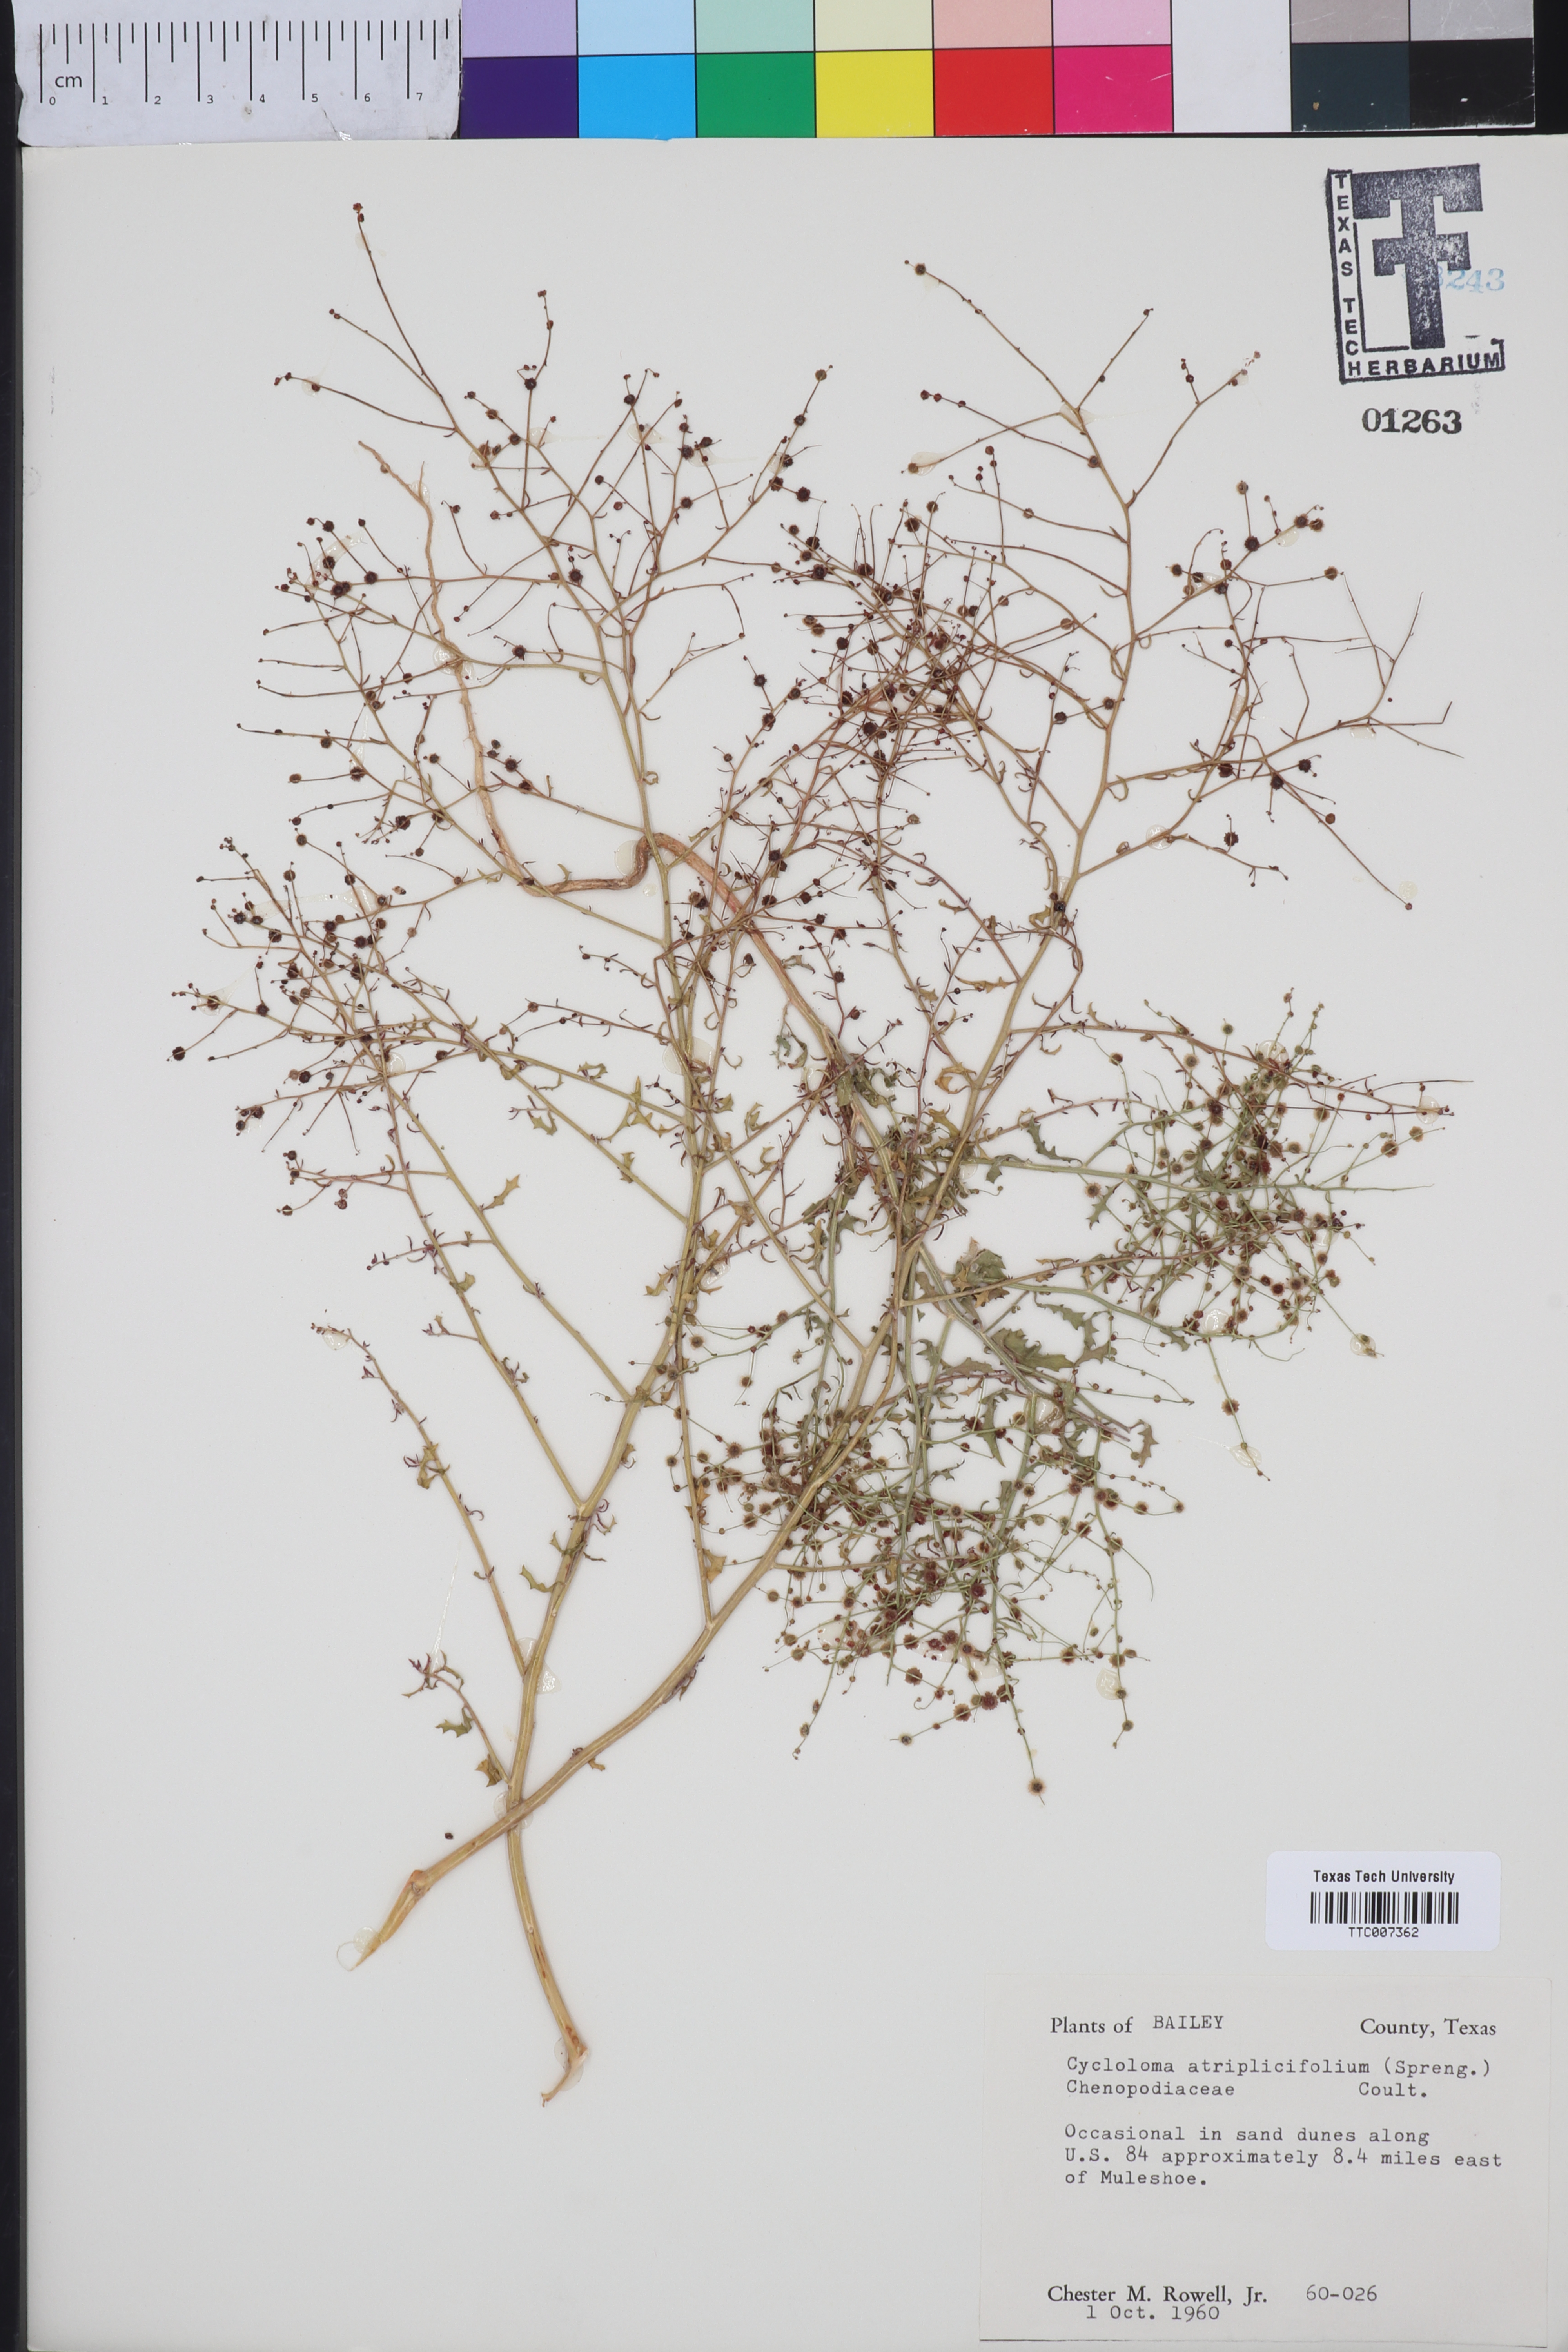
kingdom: Plantae
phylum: Tracheophyta
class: Magnoliopsida
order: Caryophyllales
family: Amaranthaceae
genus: Dysphania
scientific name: Dysphania atriplicifolia
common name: Plains tumbleweed
